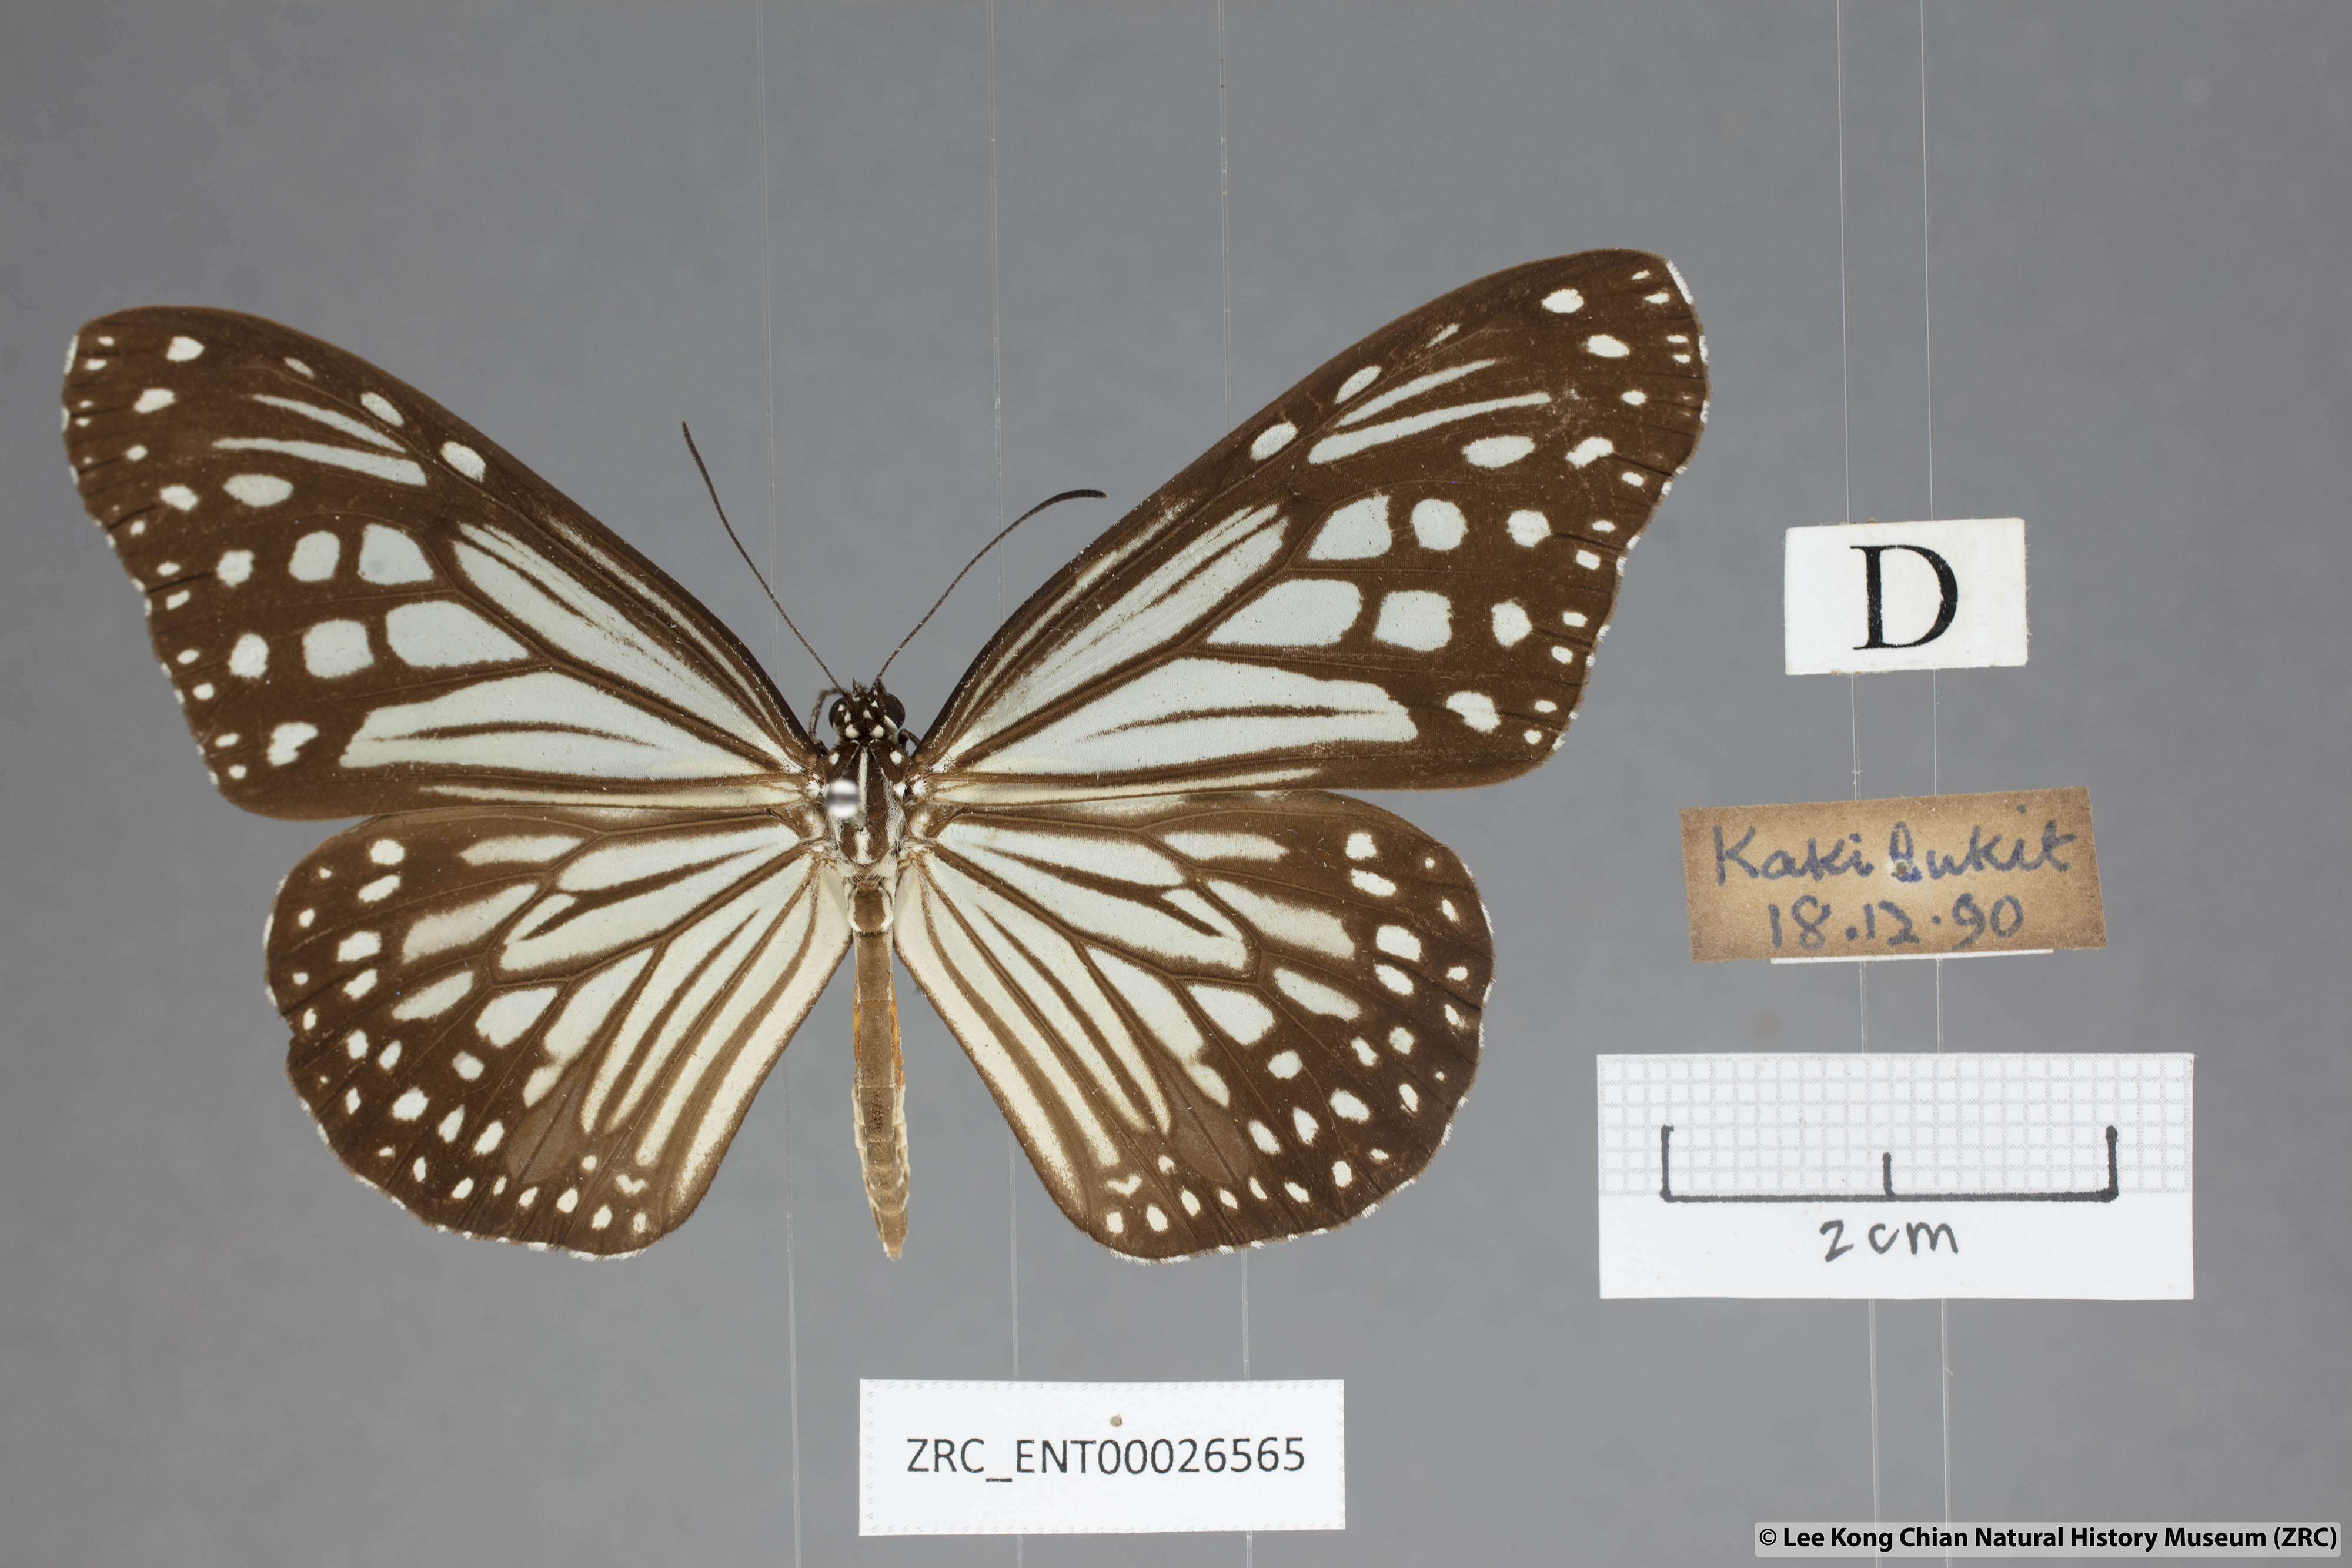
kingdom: Animalia
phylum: Arthropoda
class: Insecta
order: Lepidoptera
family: Nymphalidae
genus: Parantica
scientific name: Parantica aglea
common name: Glassy tiger
